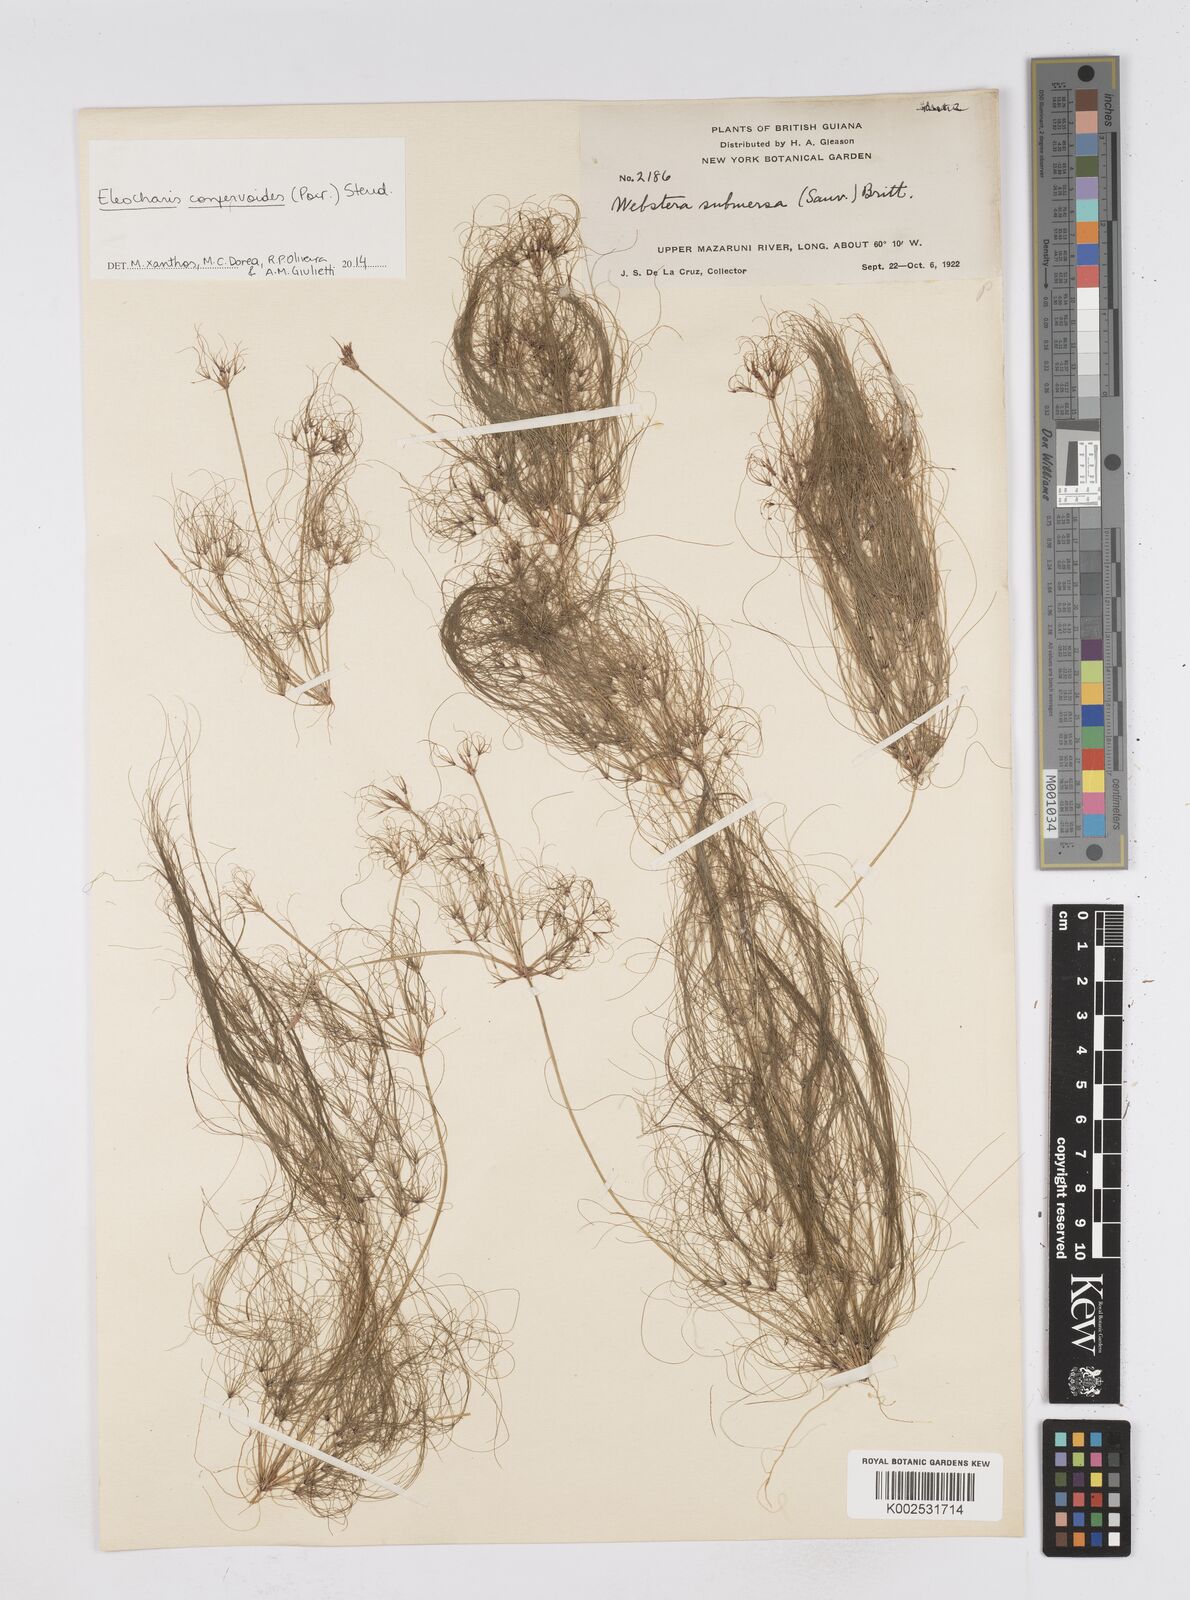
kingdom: Plantae
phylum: Tracheophyta
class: Liliopsida
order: Poales
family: Cyperaceae
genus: Eleocharis
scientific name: Eleocharis confervoides
